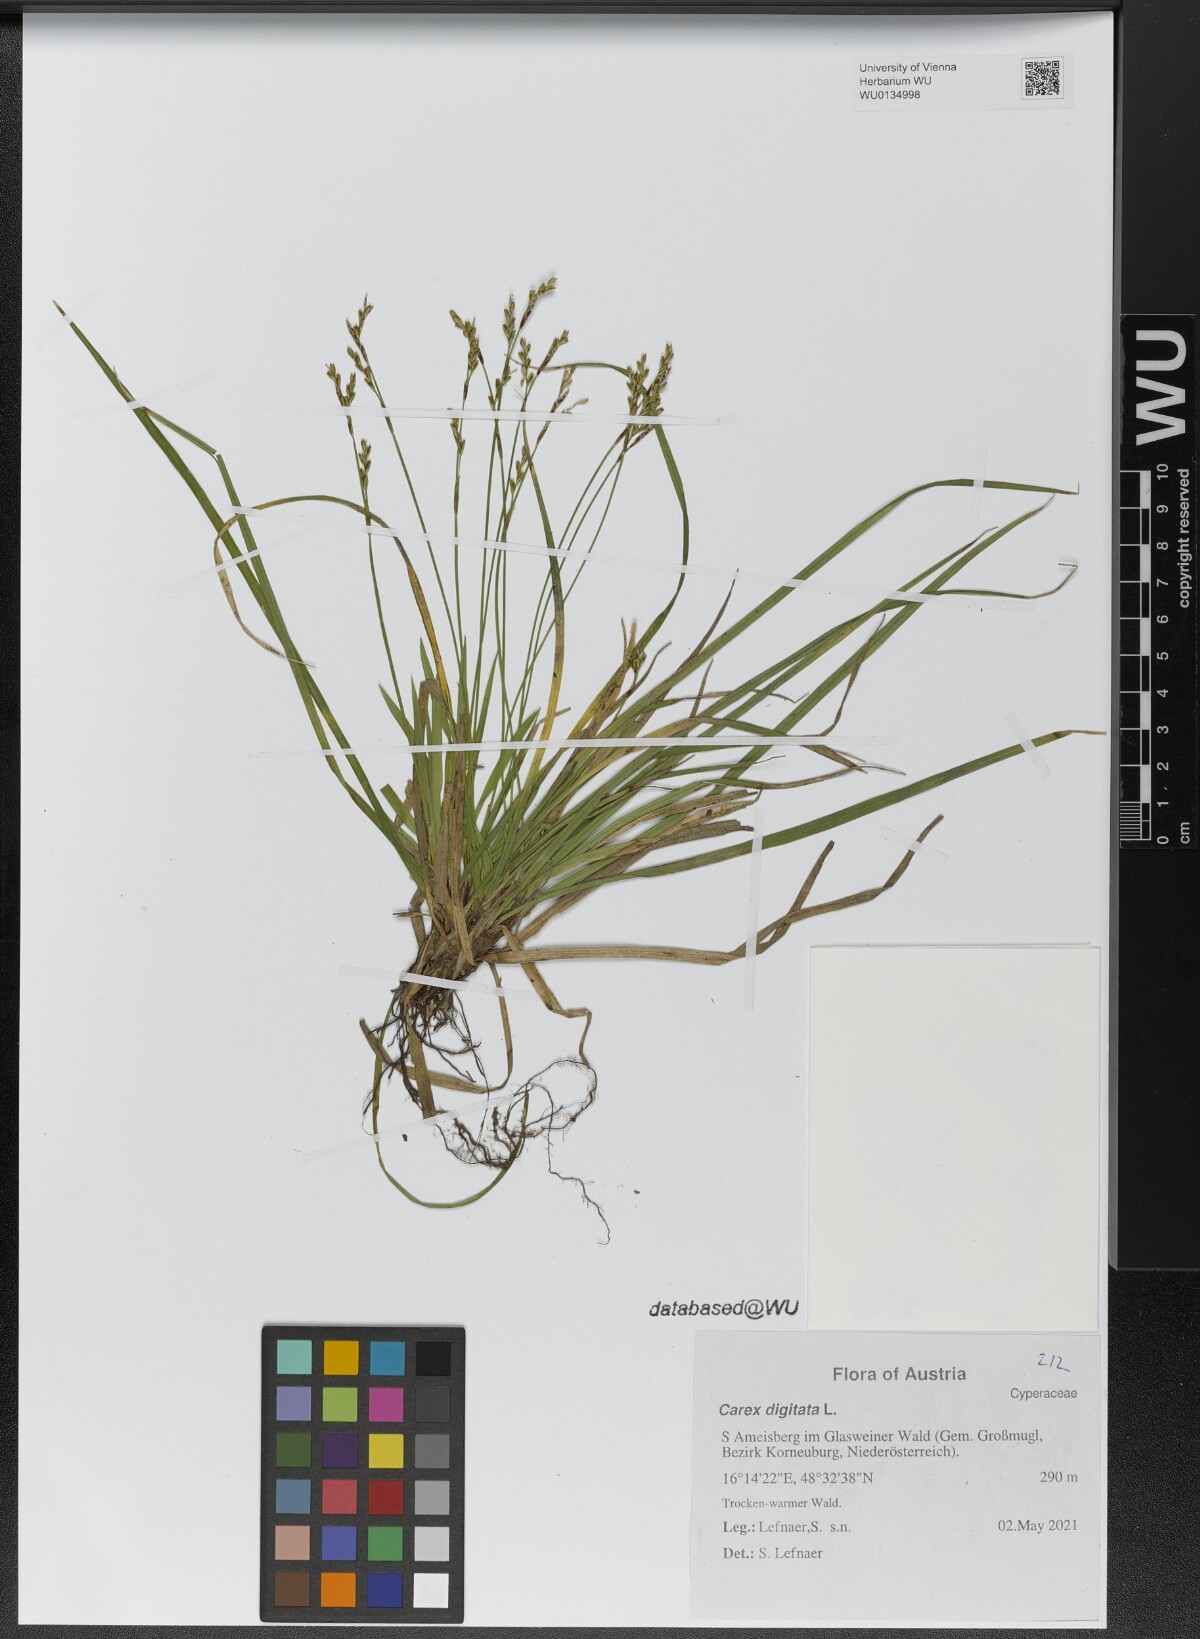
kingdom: Plantae
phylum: Tracheophyta
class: Liliopsida
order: Poales
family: Cyperaceae
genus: Carex
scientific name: Carex digitata
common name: Fingered sedge
